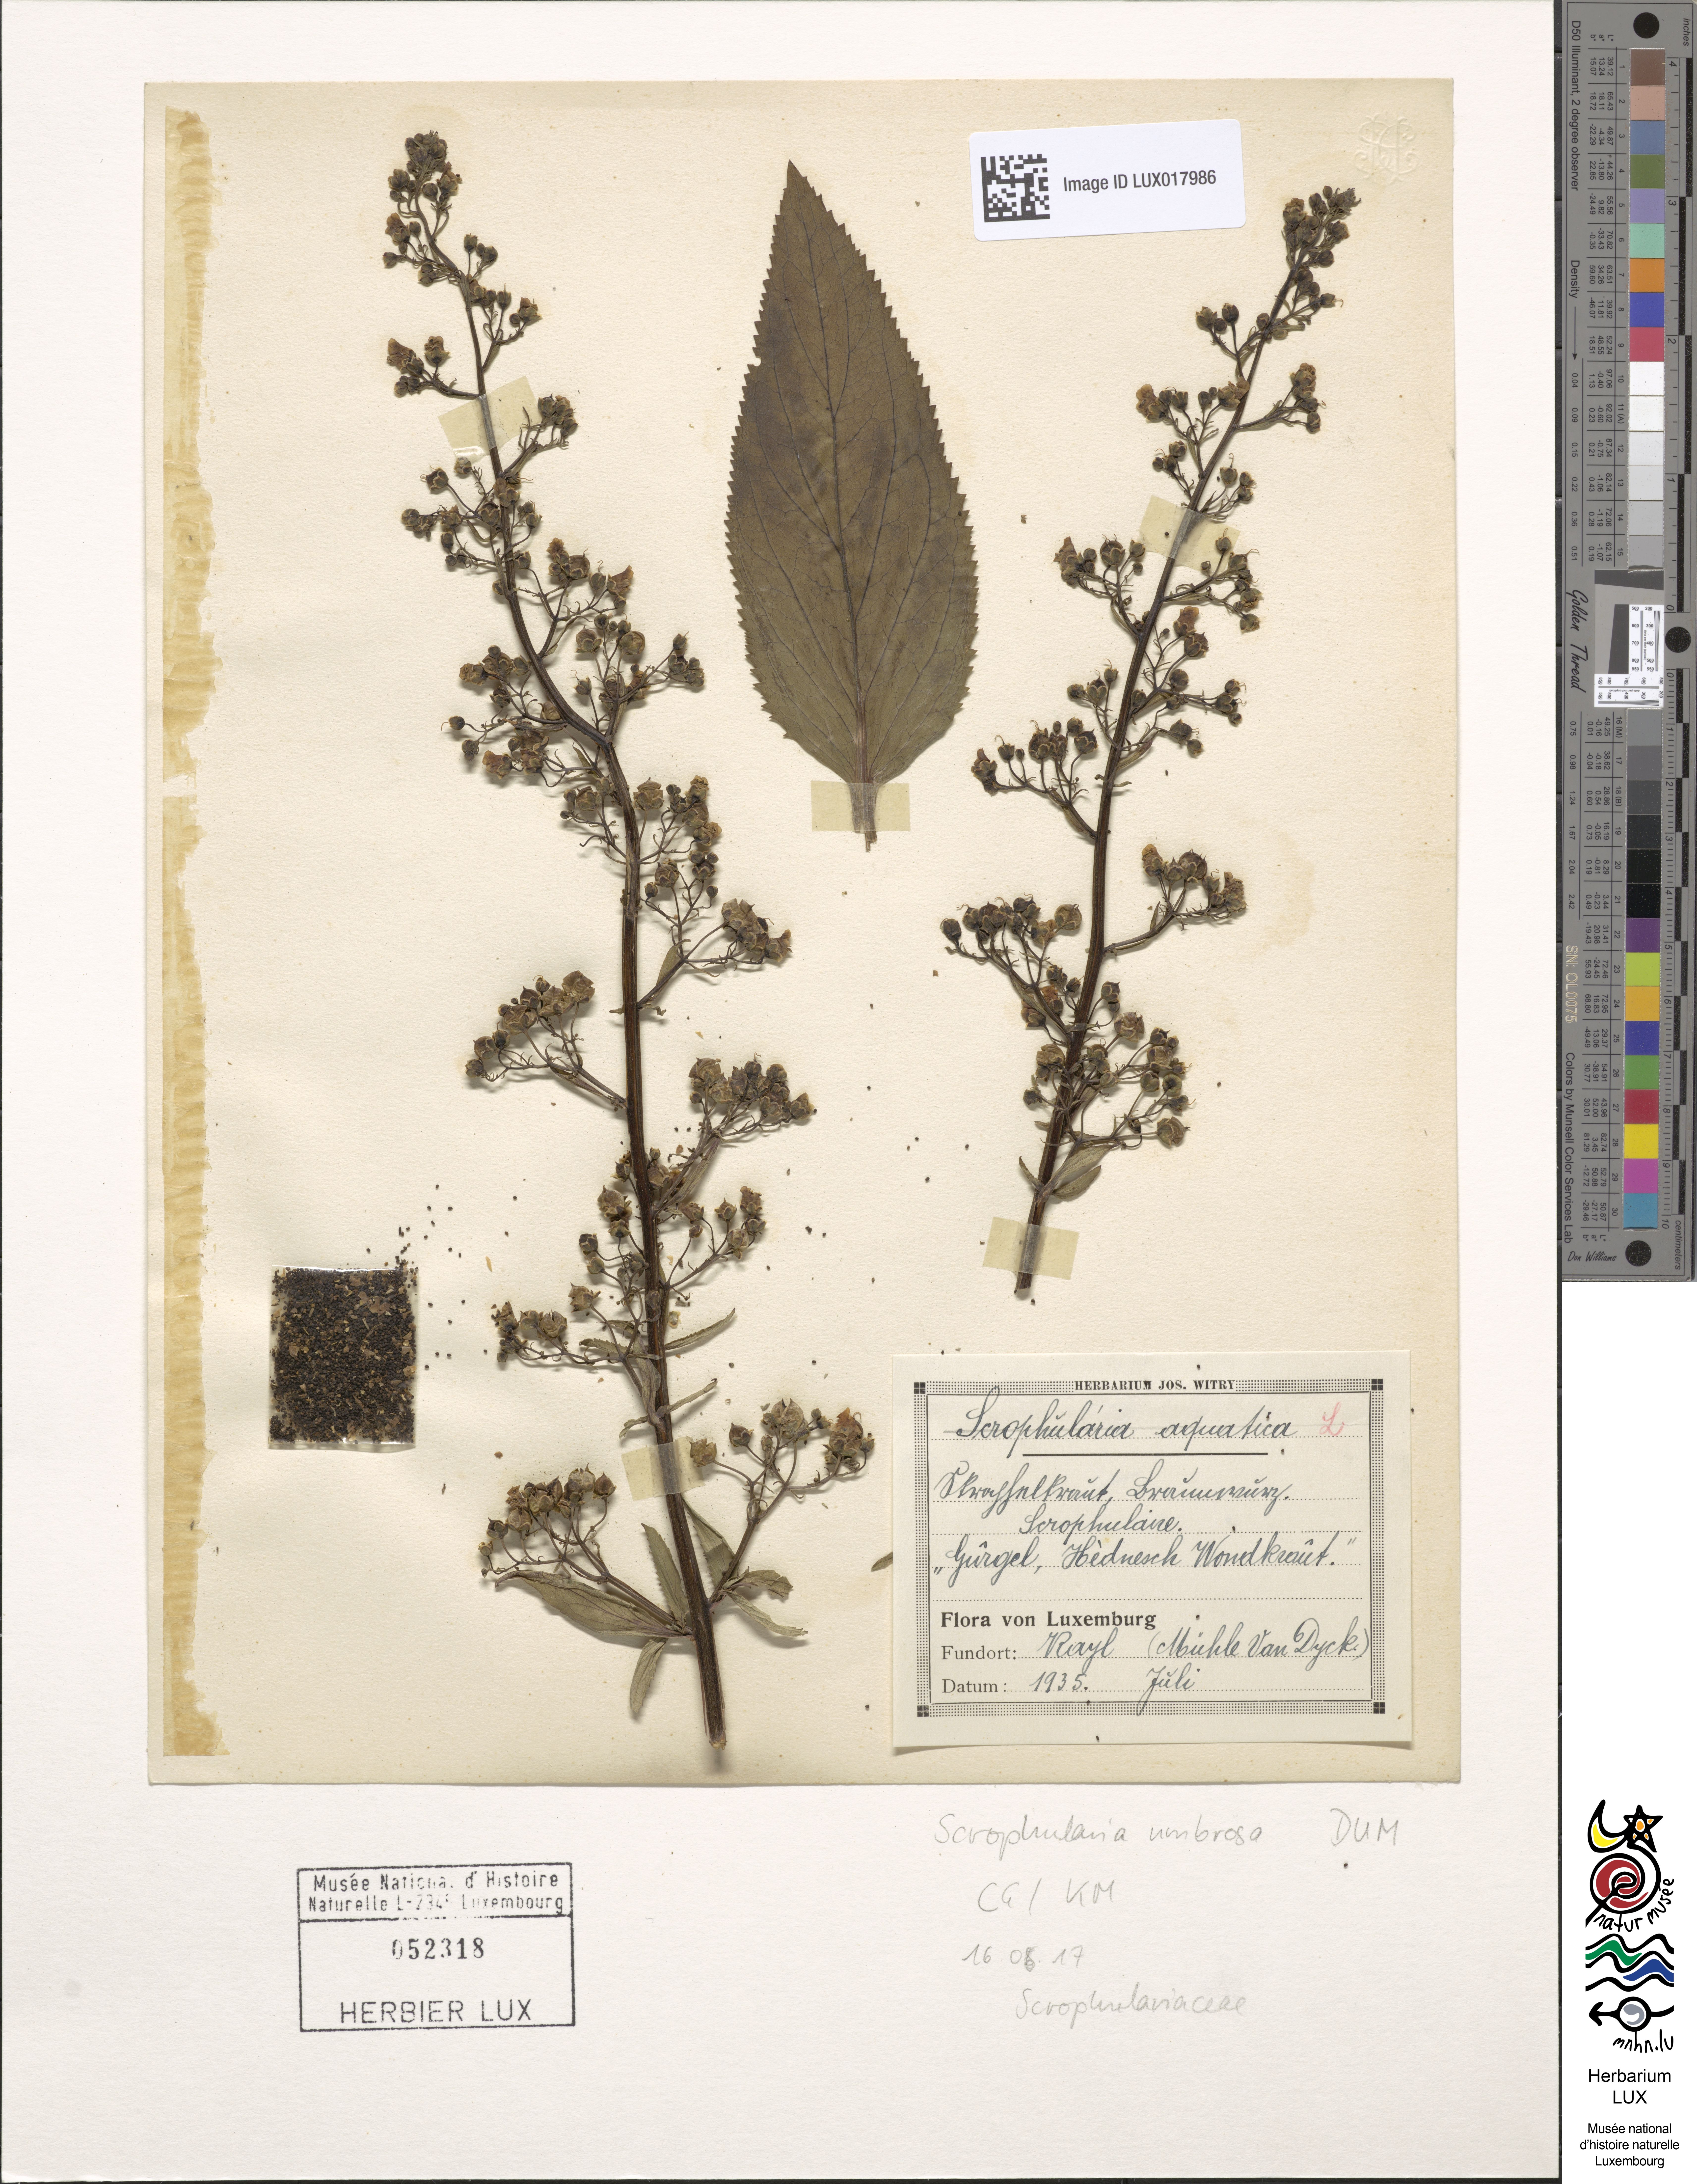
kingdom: Plantae
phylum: Tracheophyta
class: Magnoliopsida
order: Lamiales
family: Scrophulariaceae
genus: Scrophularia
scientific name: Scrophularia umbrosa
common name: Green figwort
